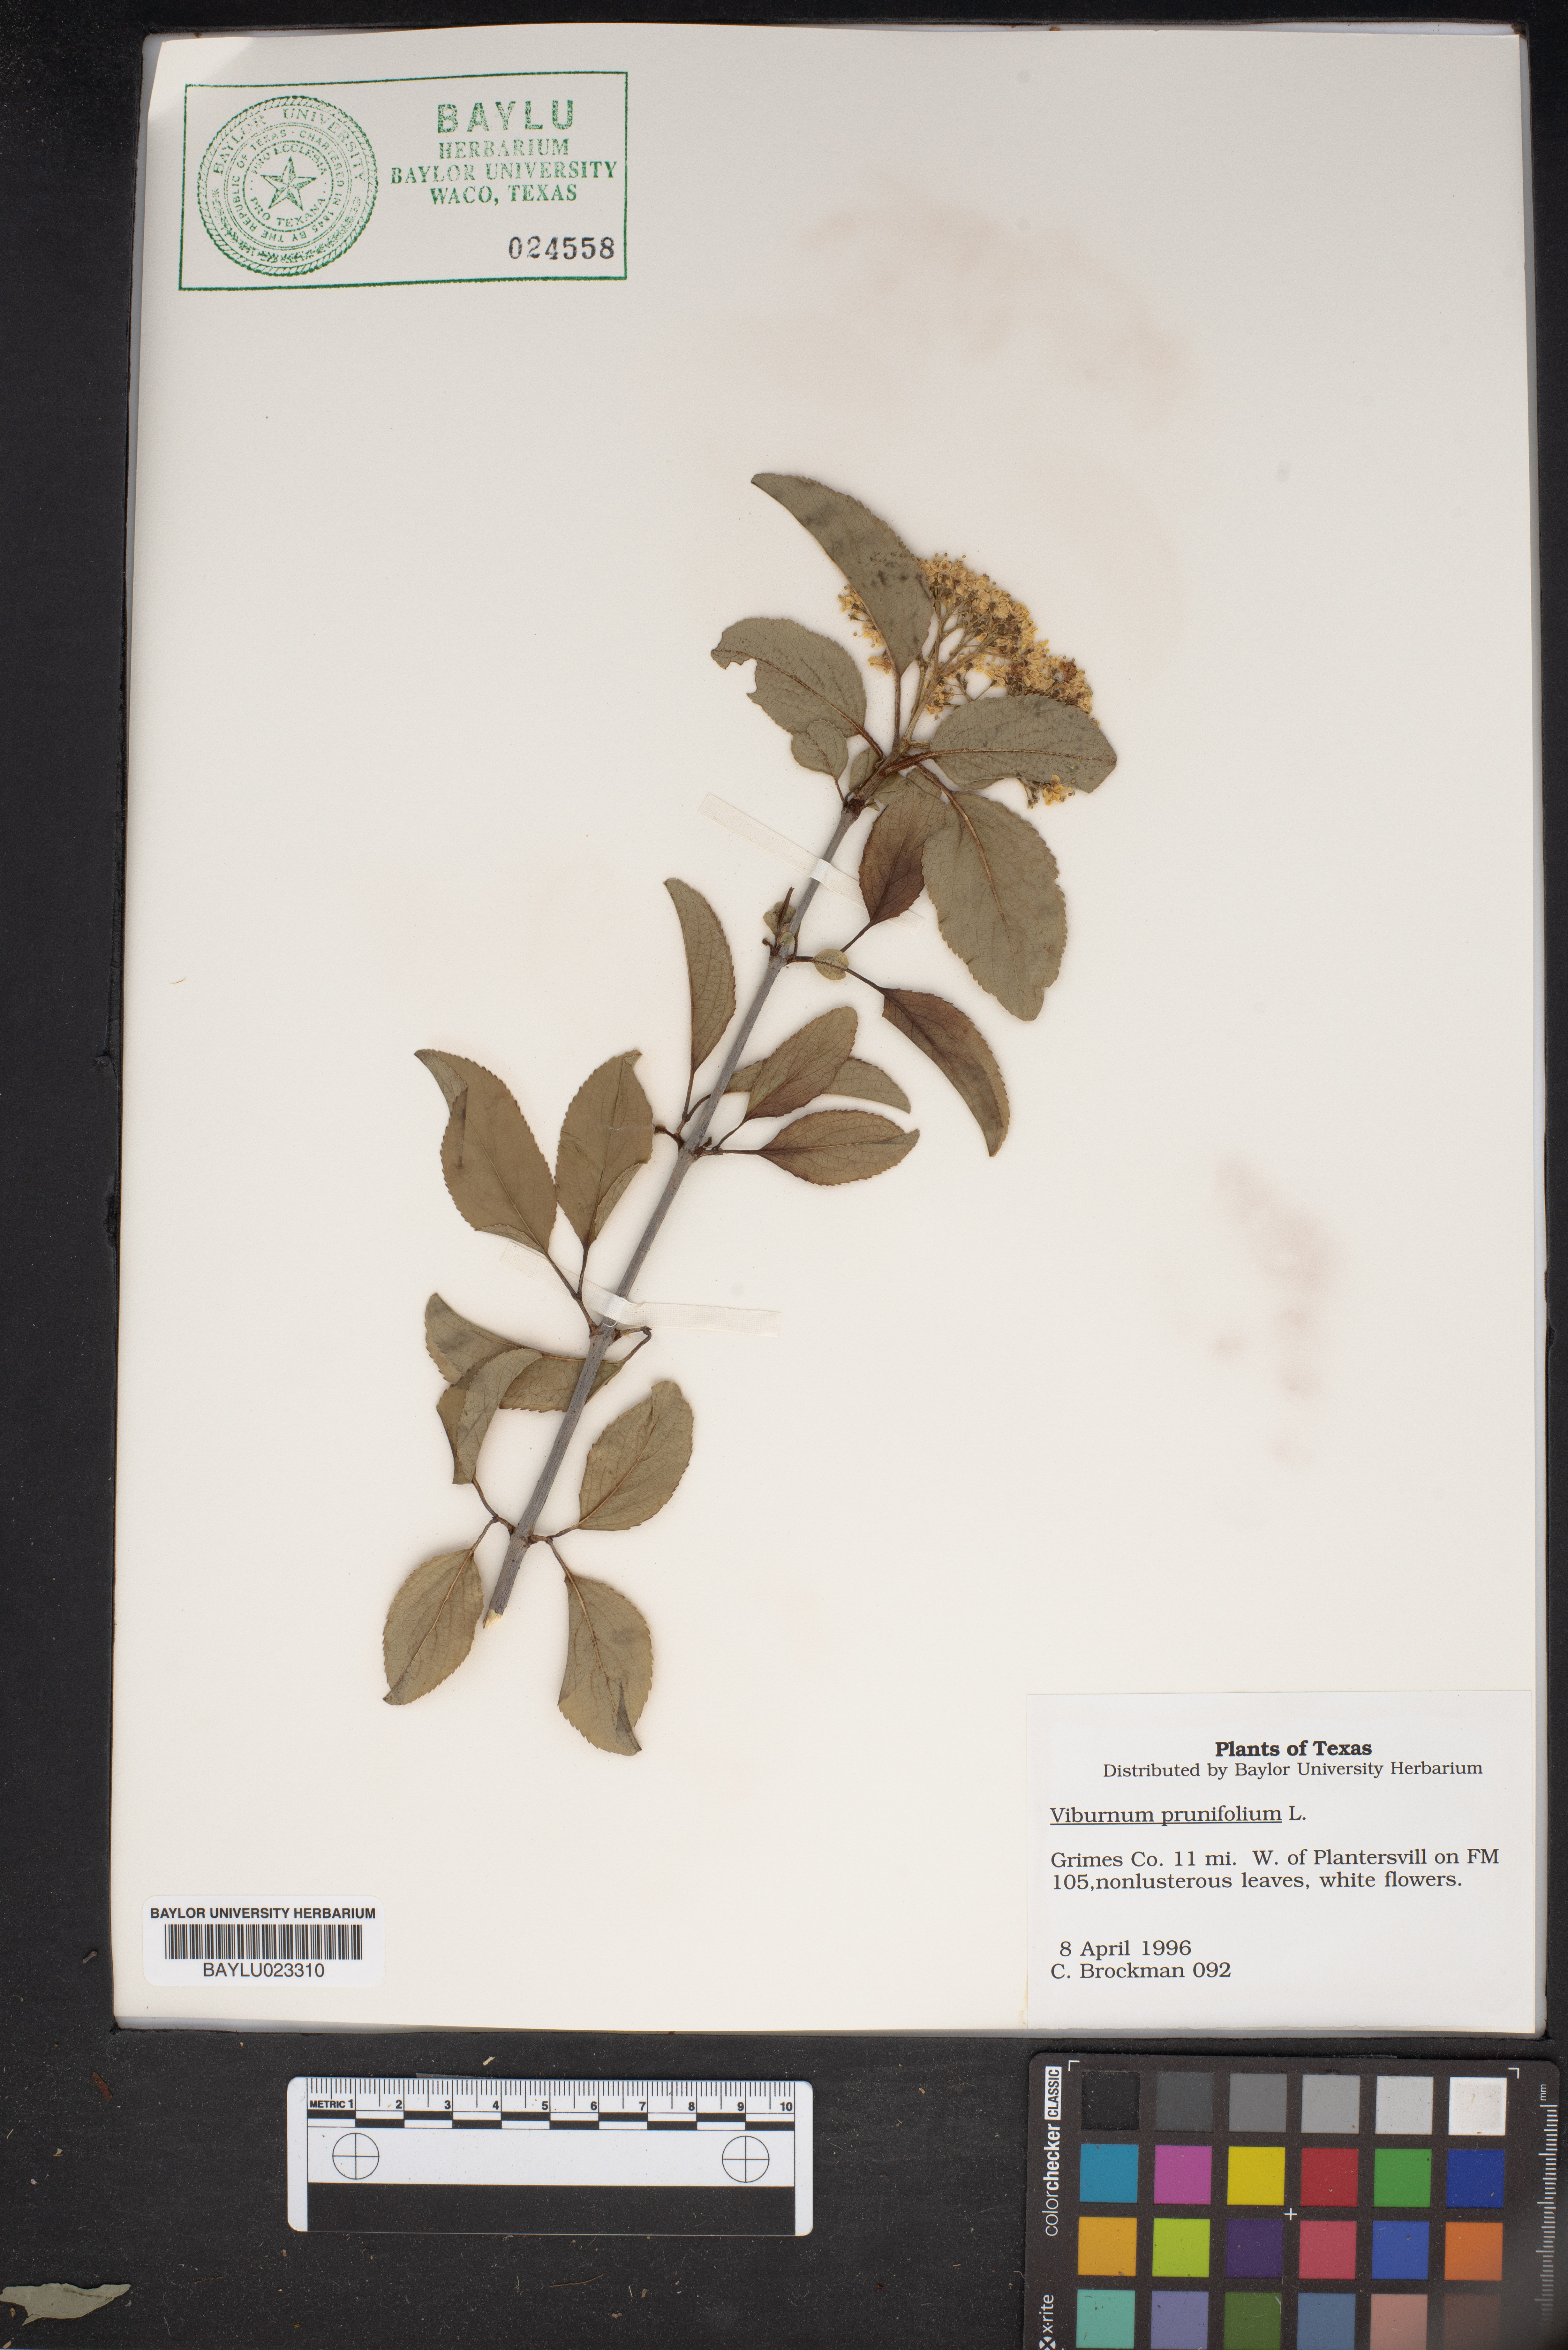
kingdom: Plantae
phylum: Tracheophyta
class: Magnoliopsida
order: Dipsacales
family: Viburnaceae
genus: Viburnum
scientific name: Viburnum prunifolium
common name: Black haw
